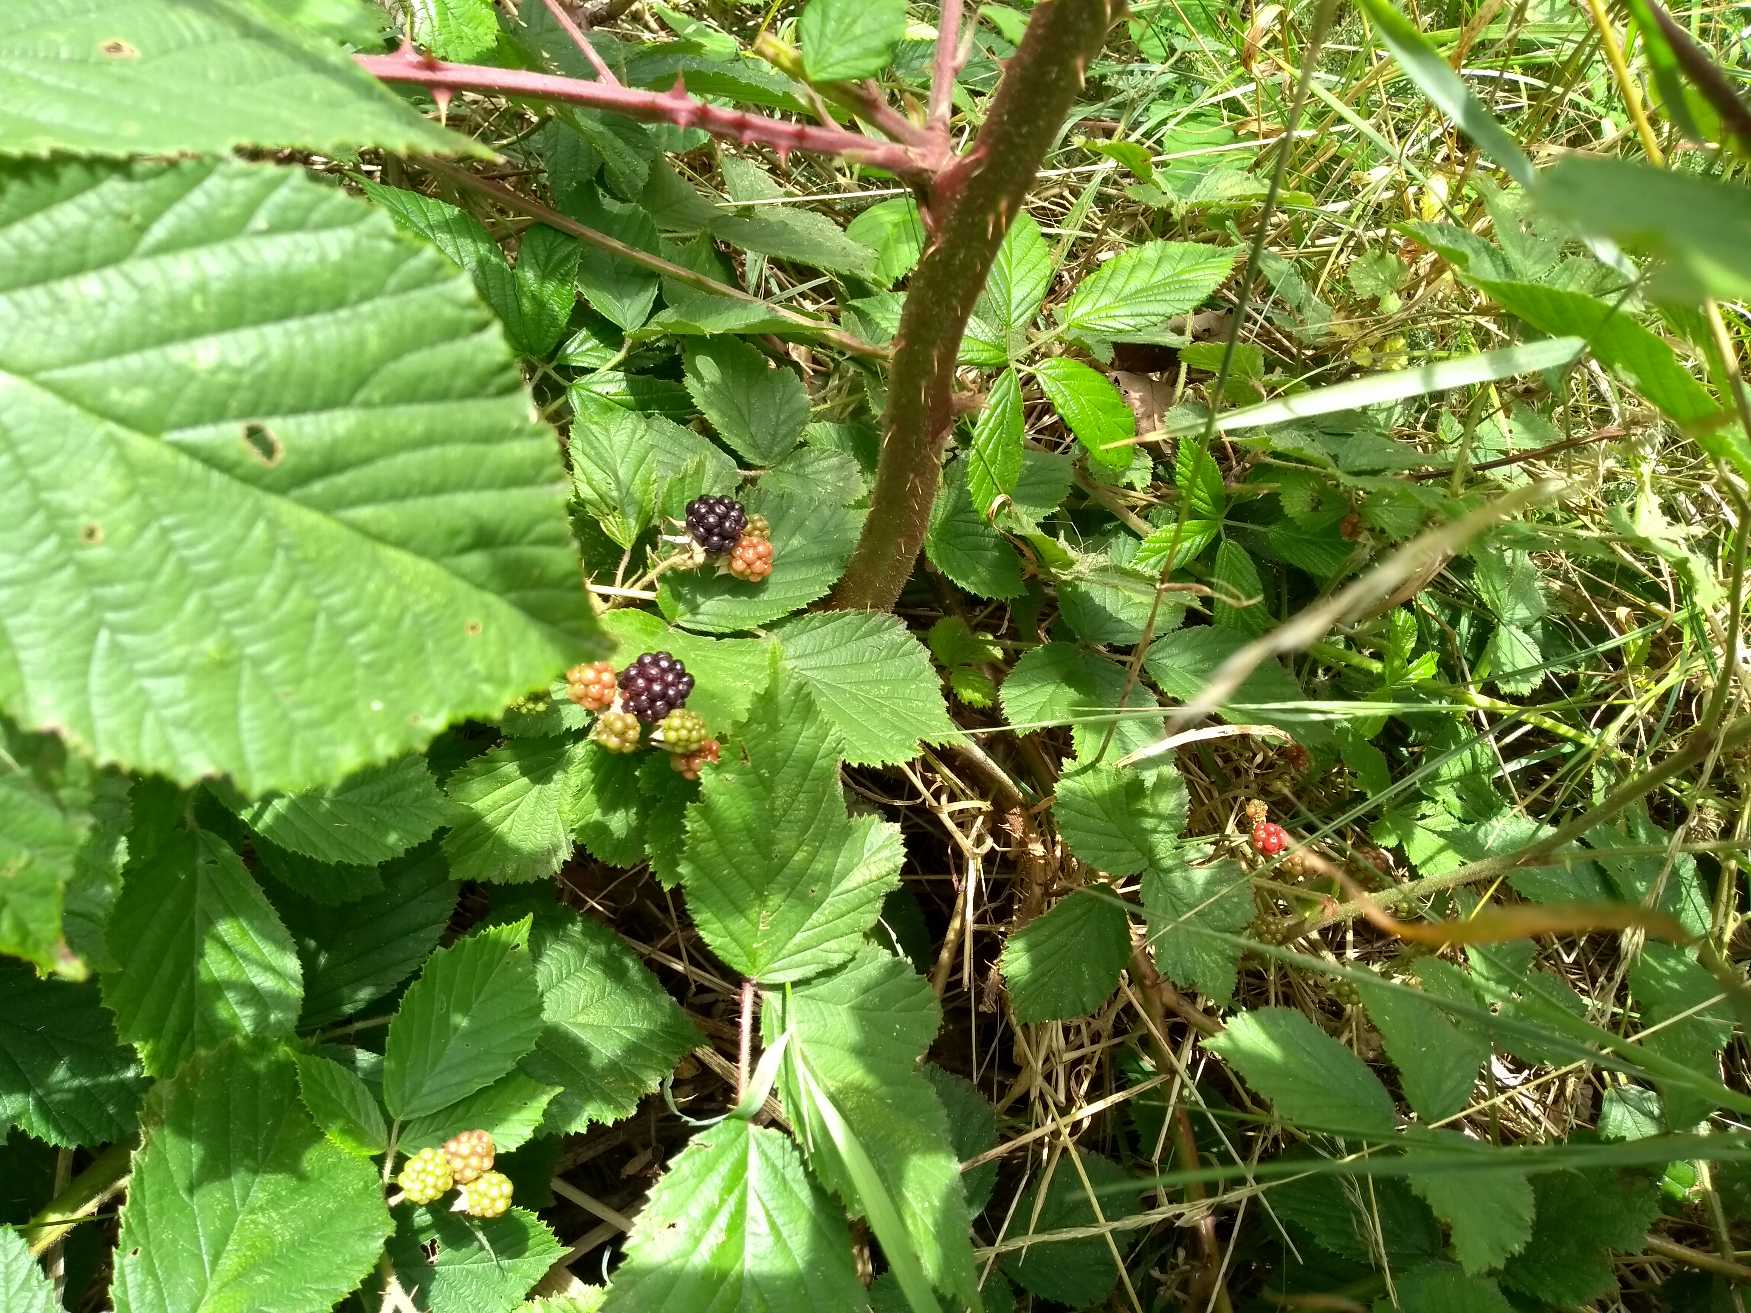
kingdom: Plantae
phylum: Tracheophyta
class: Magnoliopsida
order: Rosales
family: Rosaceae
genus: Rubus
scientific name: Rubus radula
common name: Rasperu brombær
